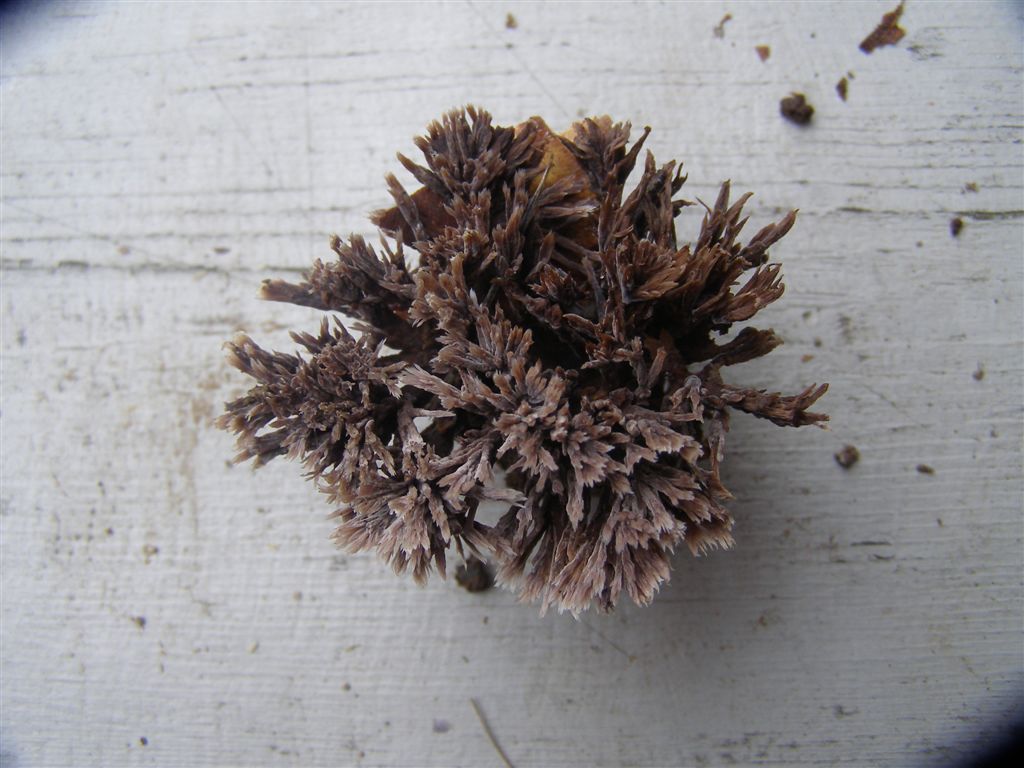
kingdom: Fungi
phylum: Basidiomycota
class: Agaricomycetes
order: Thelephorales
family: Thelephoraceae
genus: Thelephora
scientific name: Thelephora anthocephala
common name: busk-frynsesvamp
